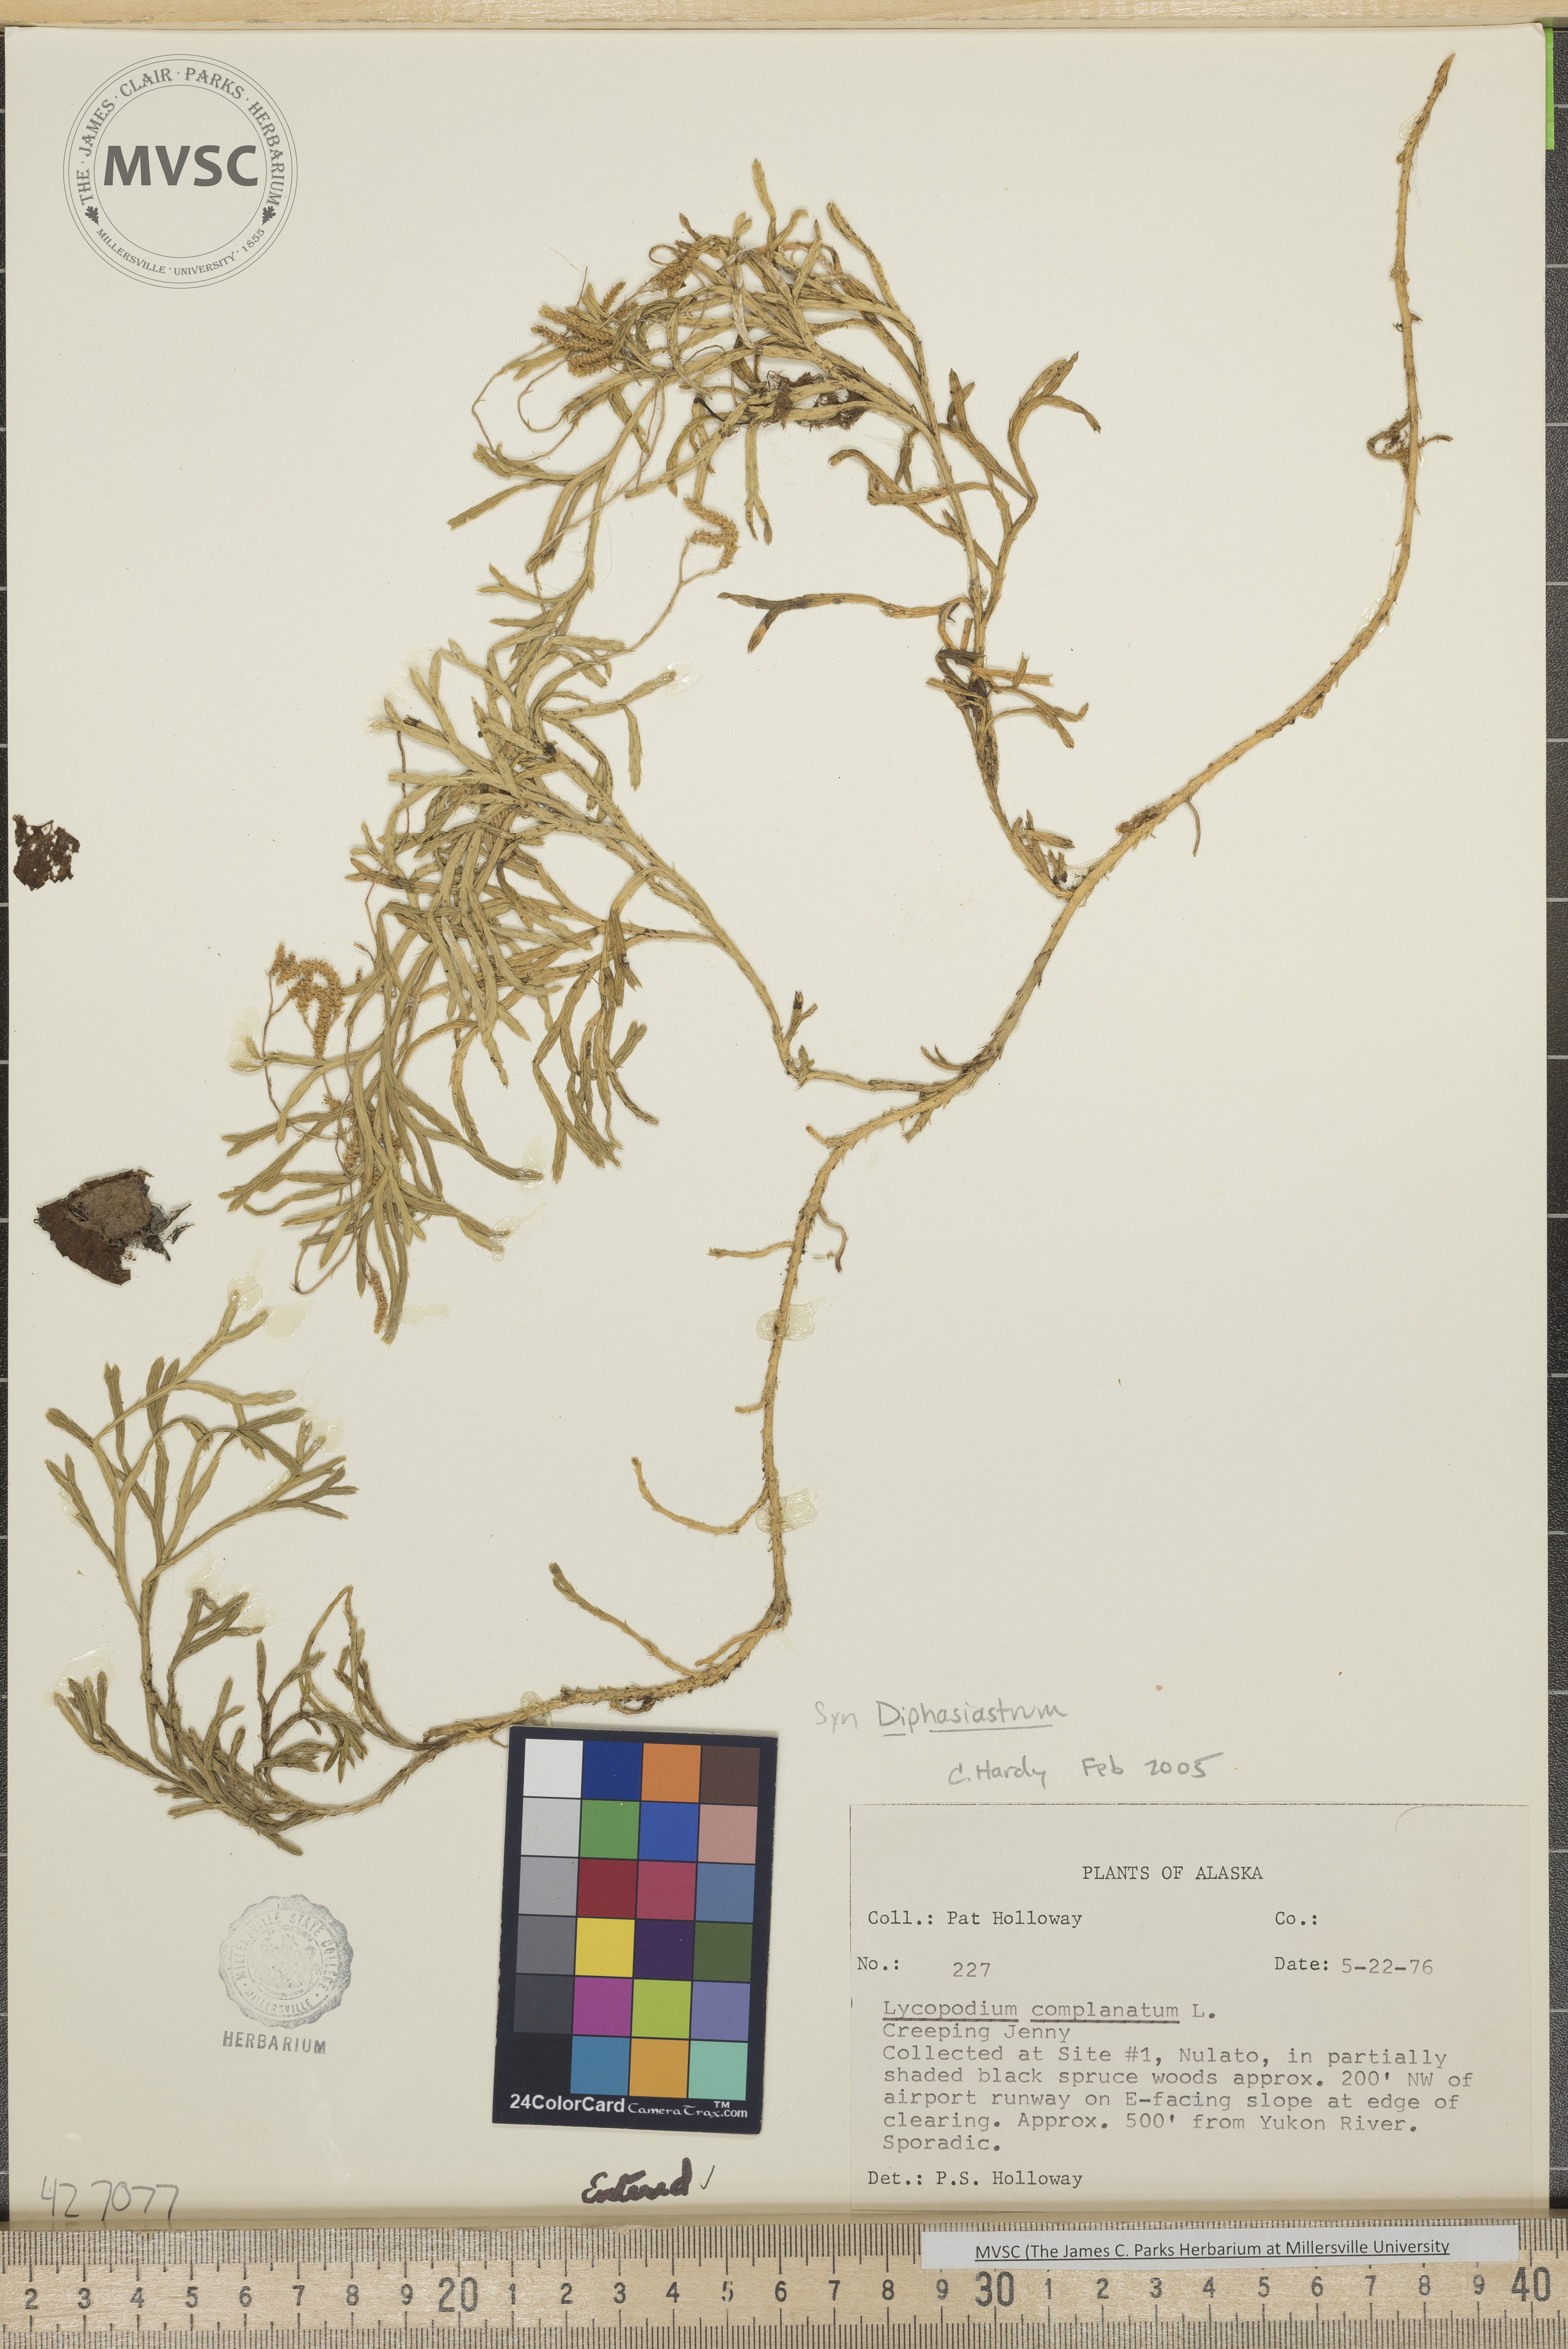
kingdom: Plantae
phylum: Tracheophyta
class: Lycopodiopsida
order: Lycopodiales
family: Lycopodiaceae
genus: Diphasiastrum
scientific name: Diphasiastrum complanatum
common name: Northern running-pine
